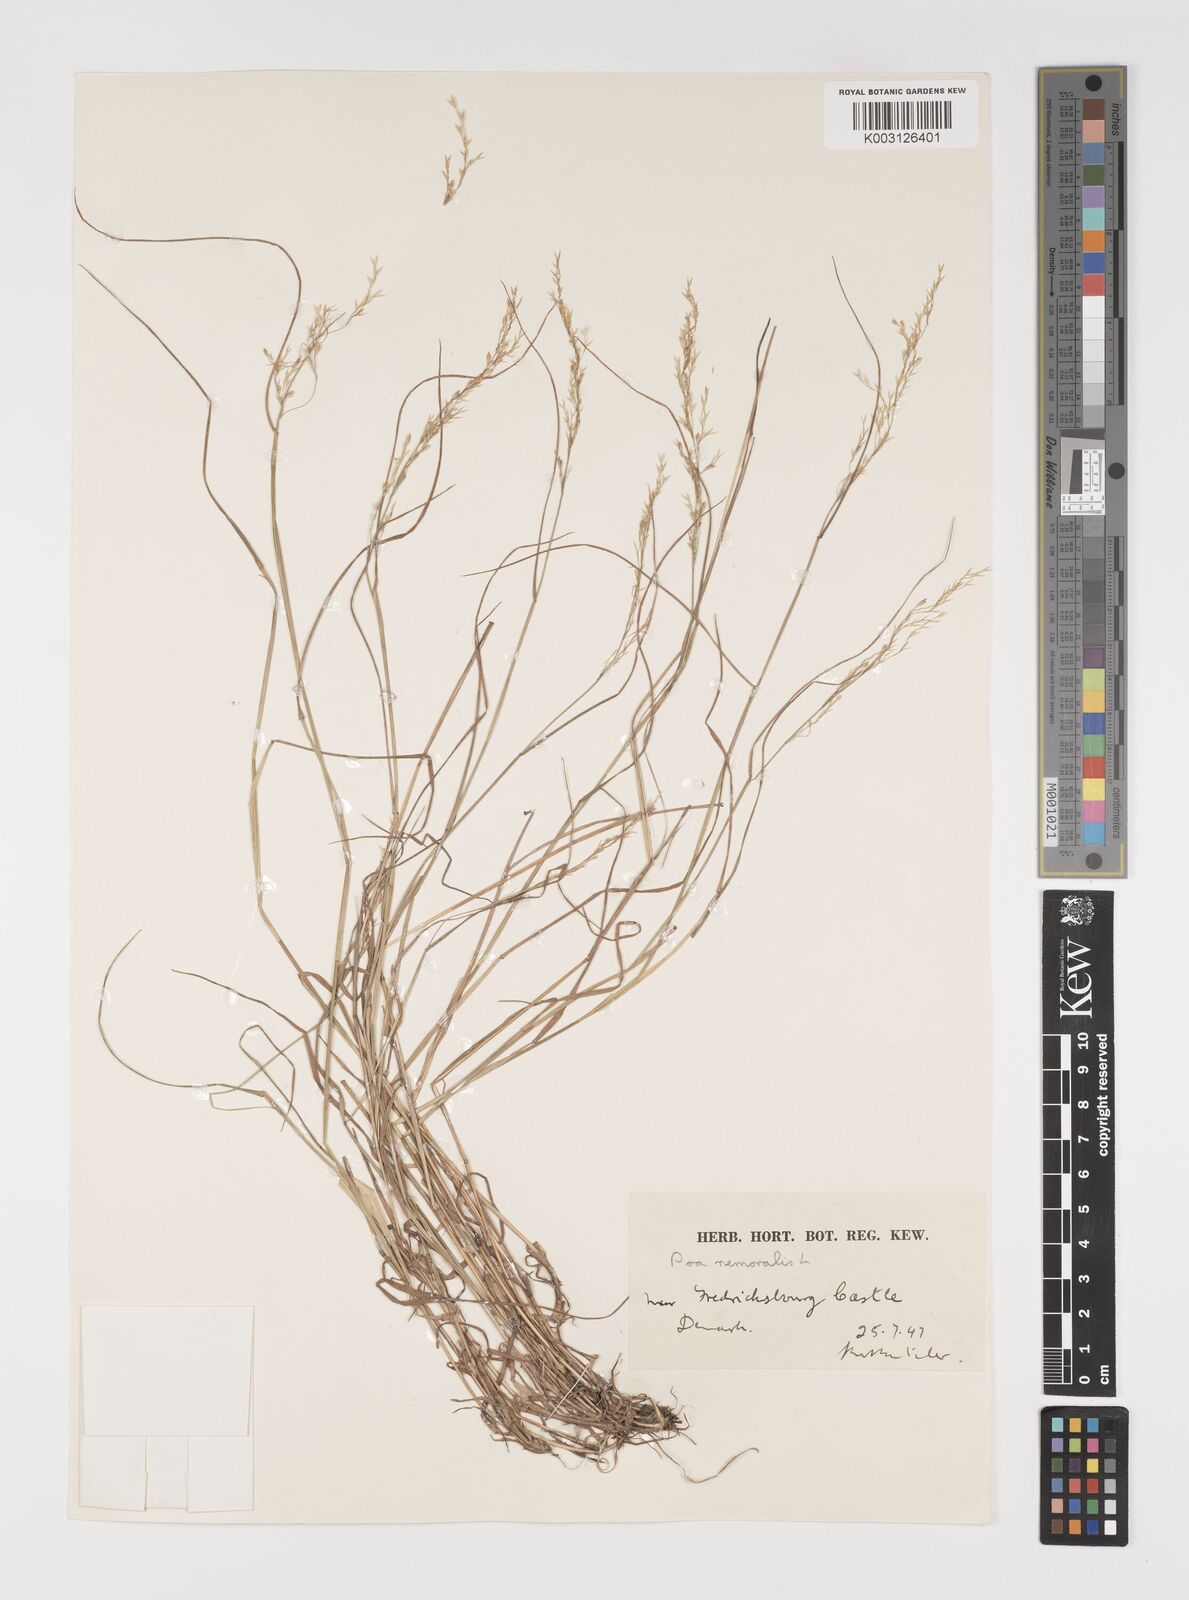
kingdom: Plantae
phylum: Tracheophyta
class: Liliopsida
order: Poales
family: Poaceae
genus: Poa
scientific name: Poa nemoralis
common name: Wood bluegrass
